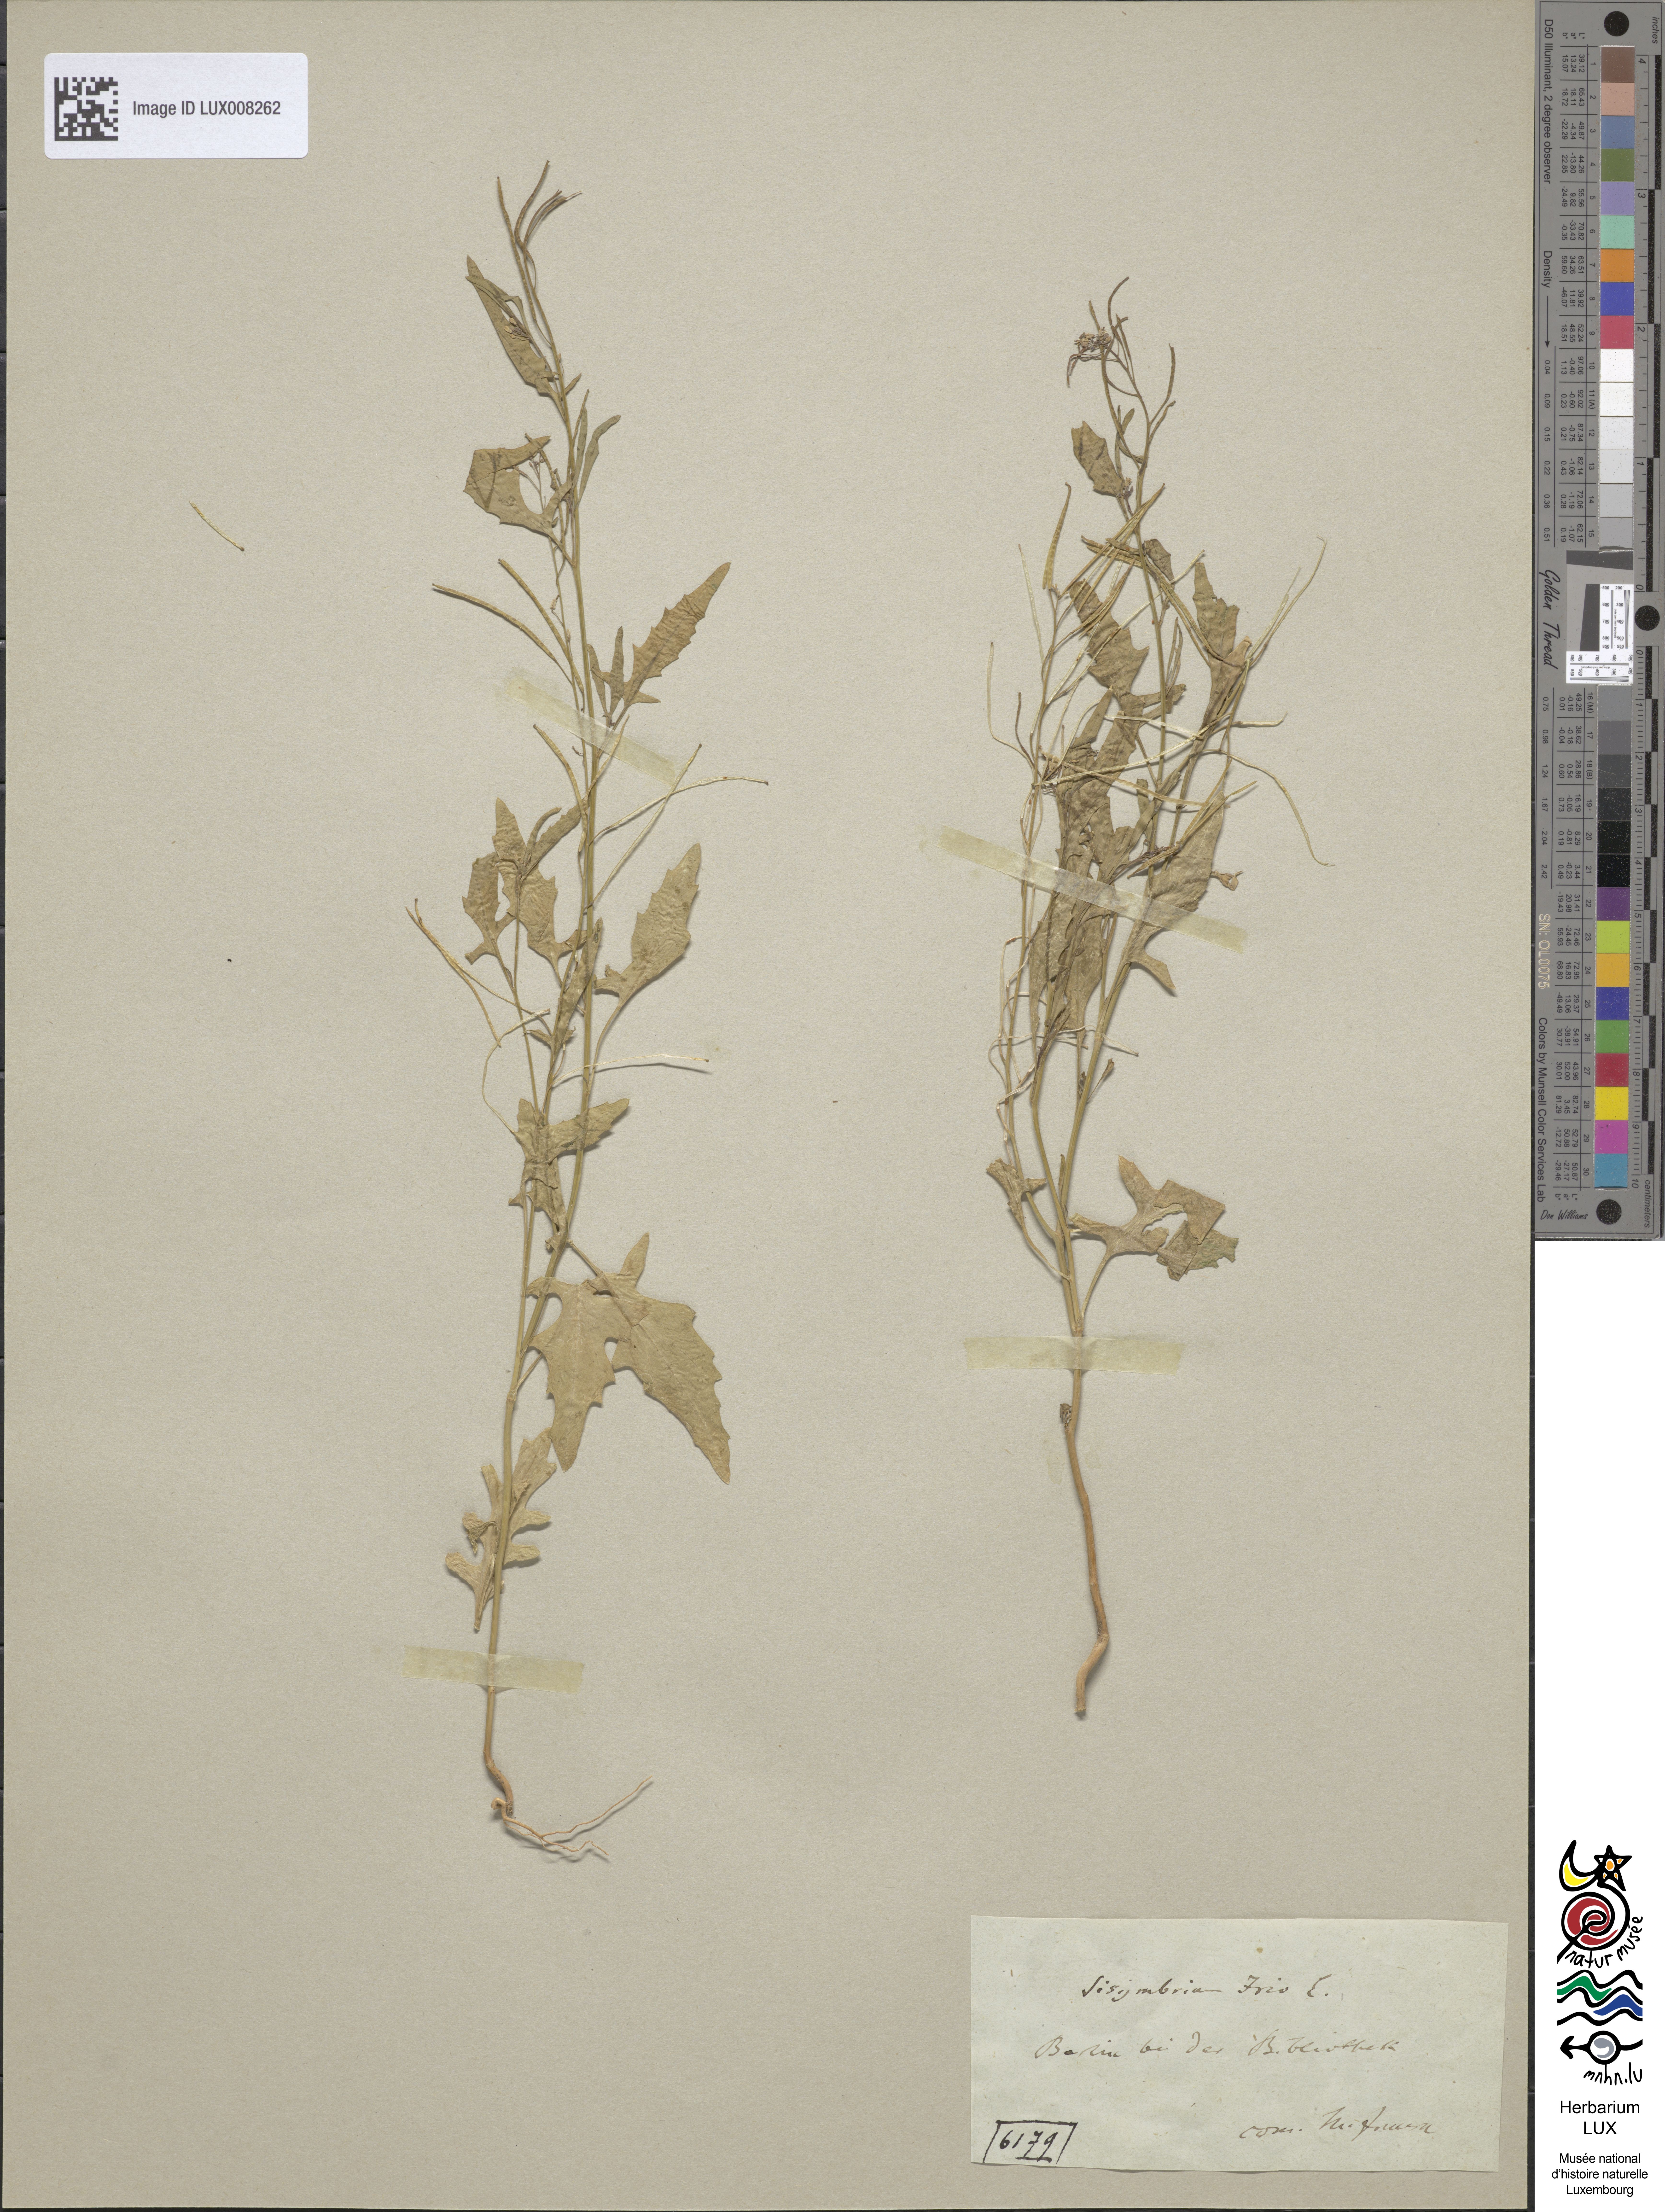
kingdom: Plantae
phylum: Tracheophyta
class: Magnoliopsida
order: Brassicales
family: Brassicaceae
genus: Sisymbrium
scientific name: Sisymbrium irio
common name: London rocket
